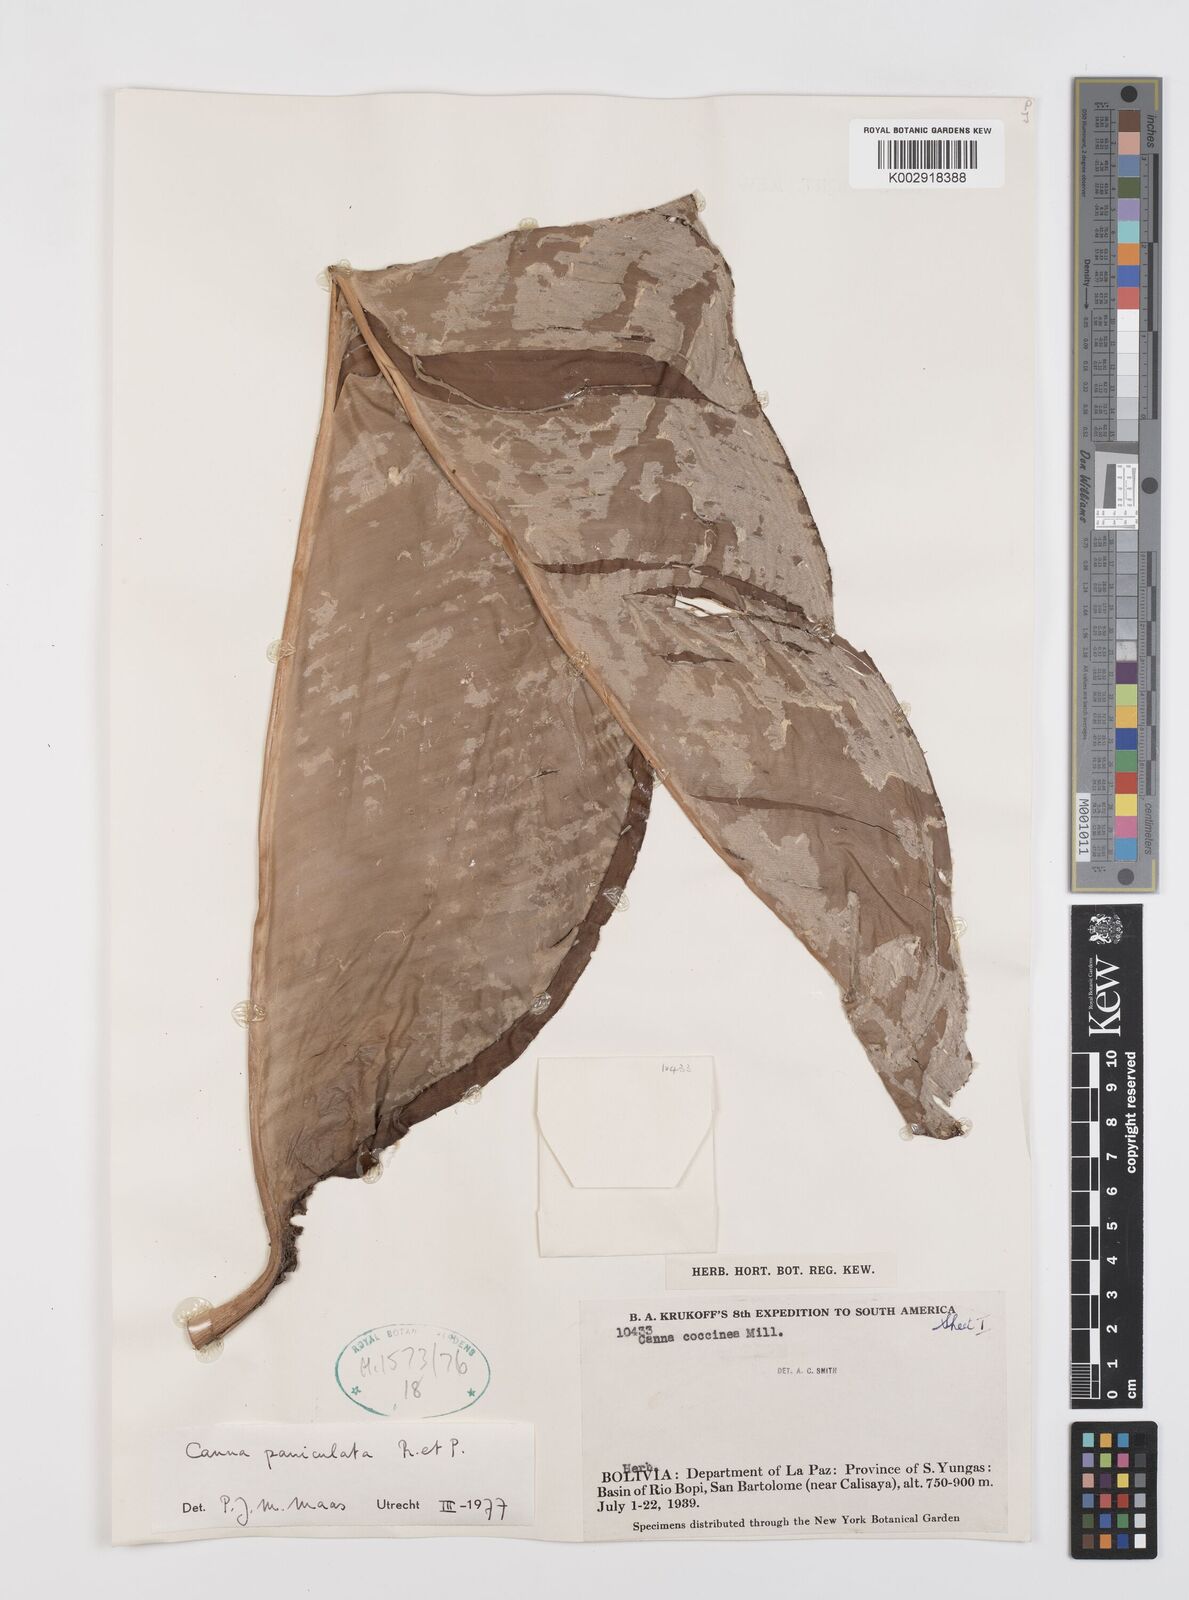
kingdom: Plantae
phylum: Tracheophyta
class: Liliopsida
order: Zingiberales
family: Cannaceae
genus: Canna
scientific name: Canna paniculata
